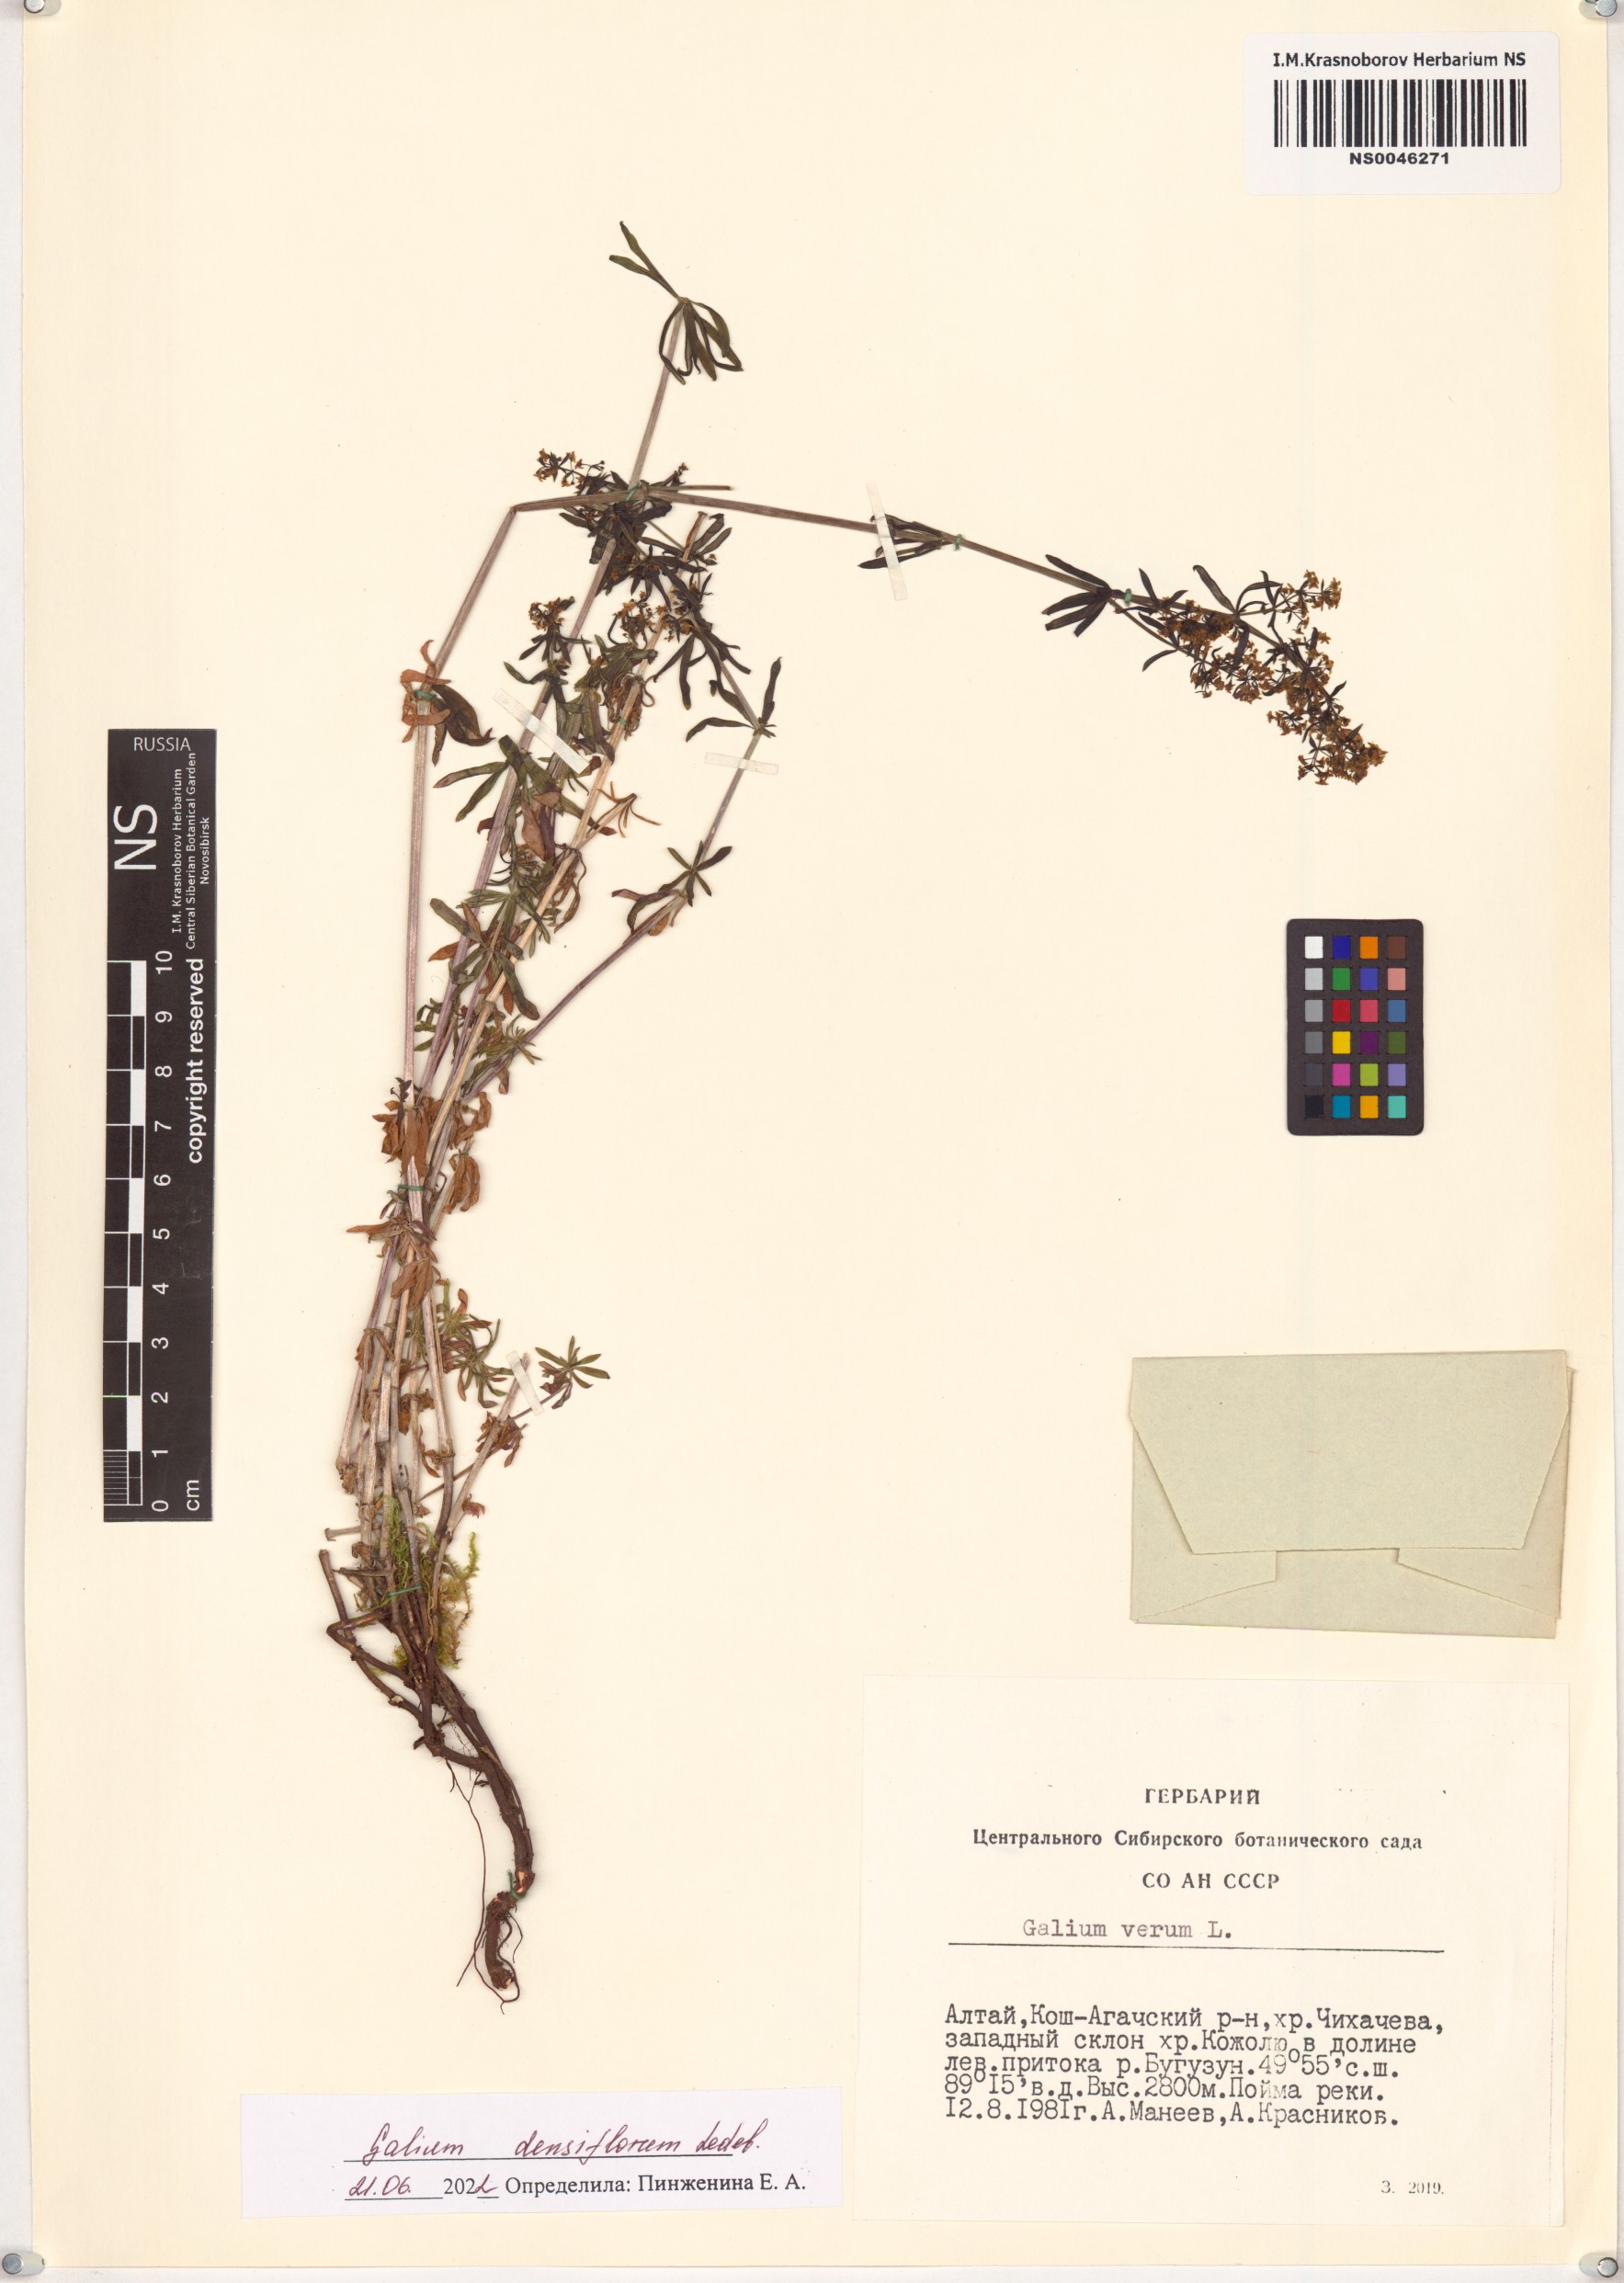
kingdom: Plantae
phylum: Tracheophyta
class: Magnoliopsida
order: Gentianales
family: Rubiaceae
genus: Galium
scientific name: Galium densiflorum
